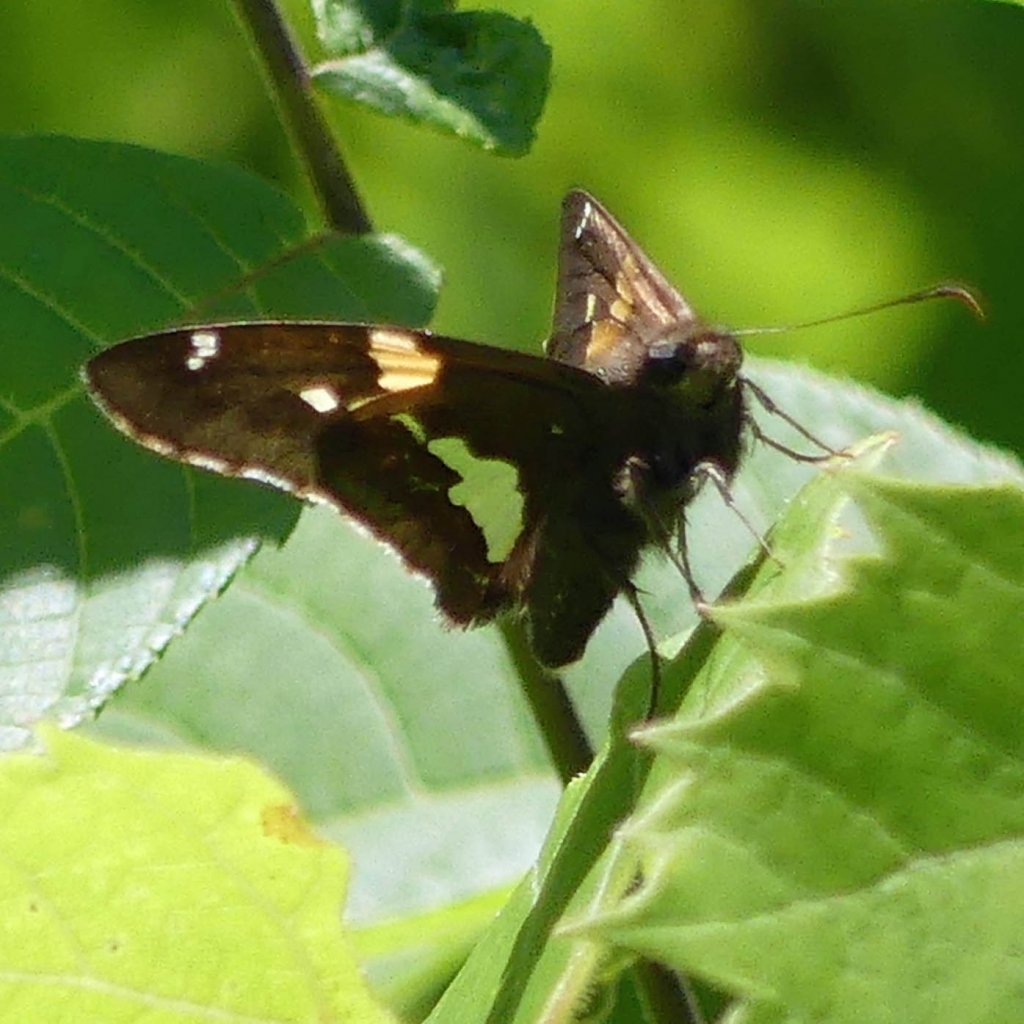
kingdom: Animalia
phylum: Arthropoda
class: Insecta
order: Lepidoptera
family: Hesperiidae
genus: Epargyreus
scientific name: Epargyreus clarus
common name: Silver-spotted Skipper
